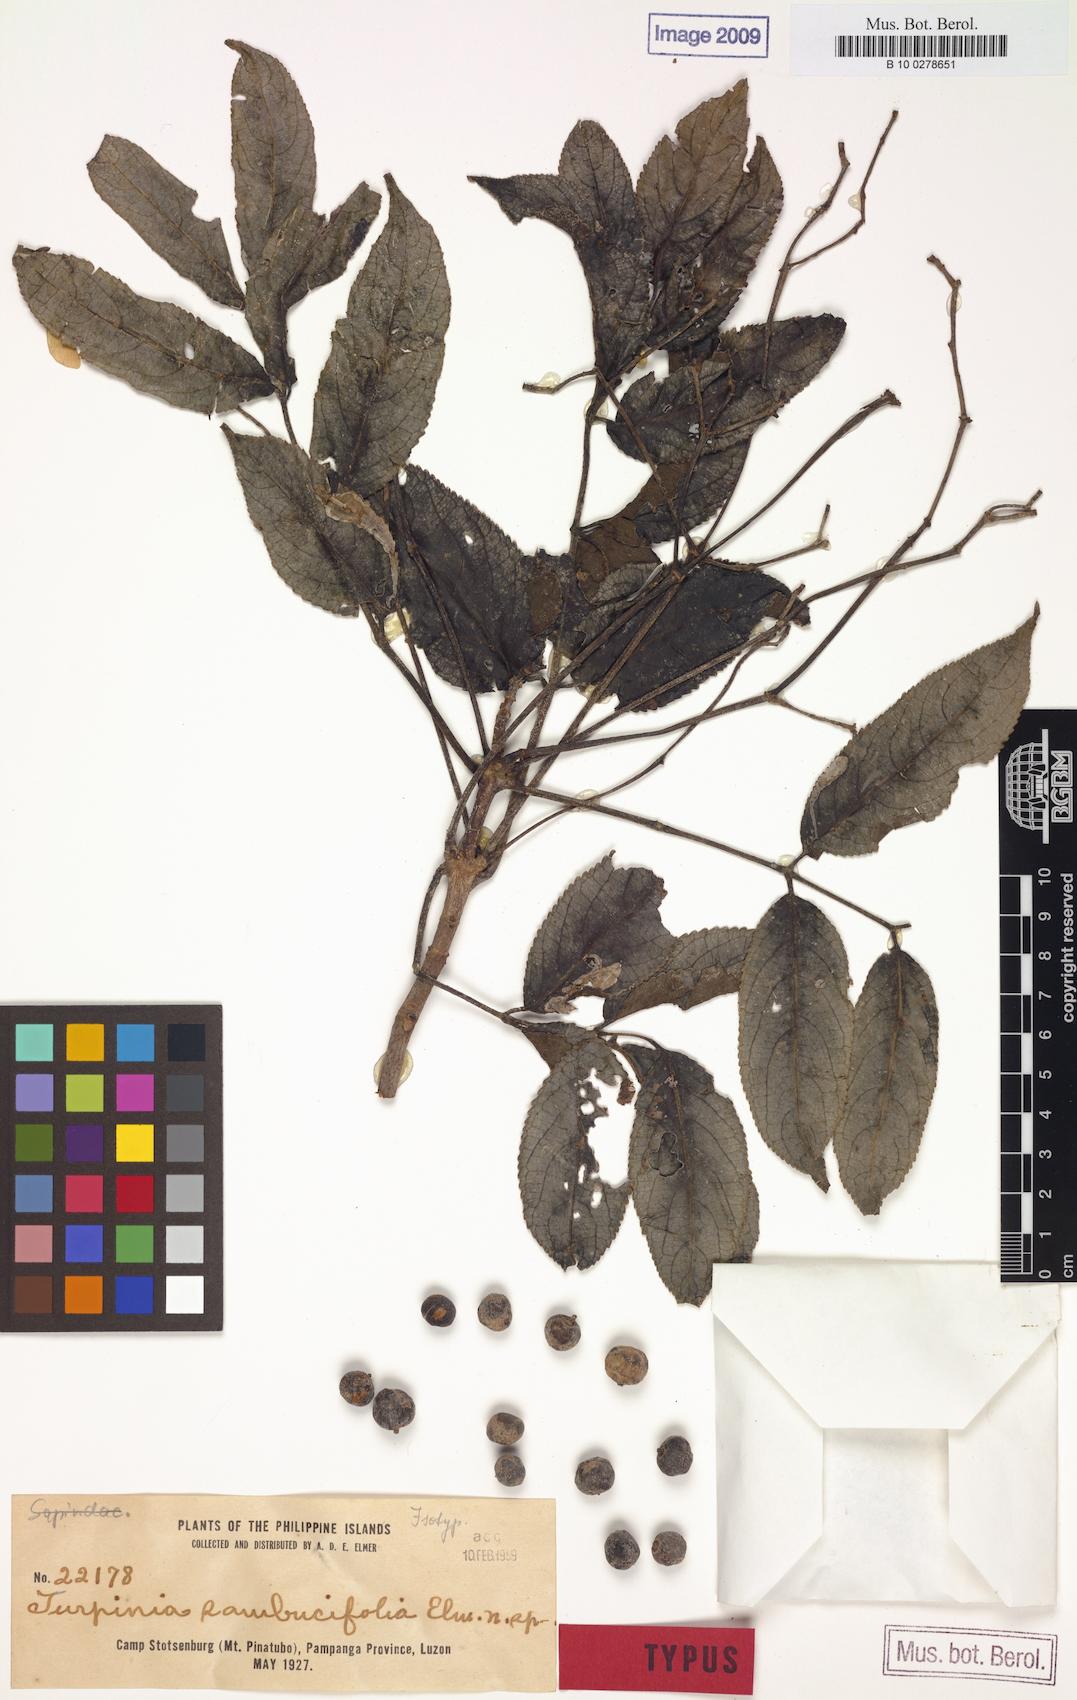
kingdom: Plantae
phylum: Tracheophyta
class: Magnoliopsida
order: Crossosomatales
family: Staphyleaceae
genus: Dalrympelea
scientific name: Dalrympelea sphaerocarpa
